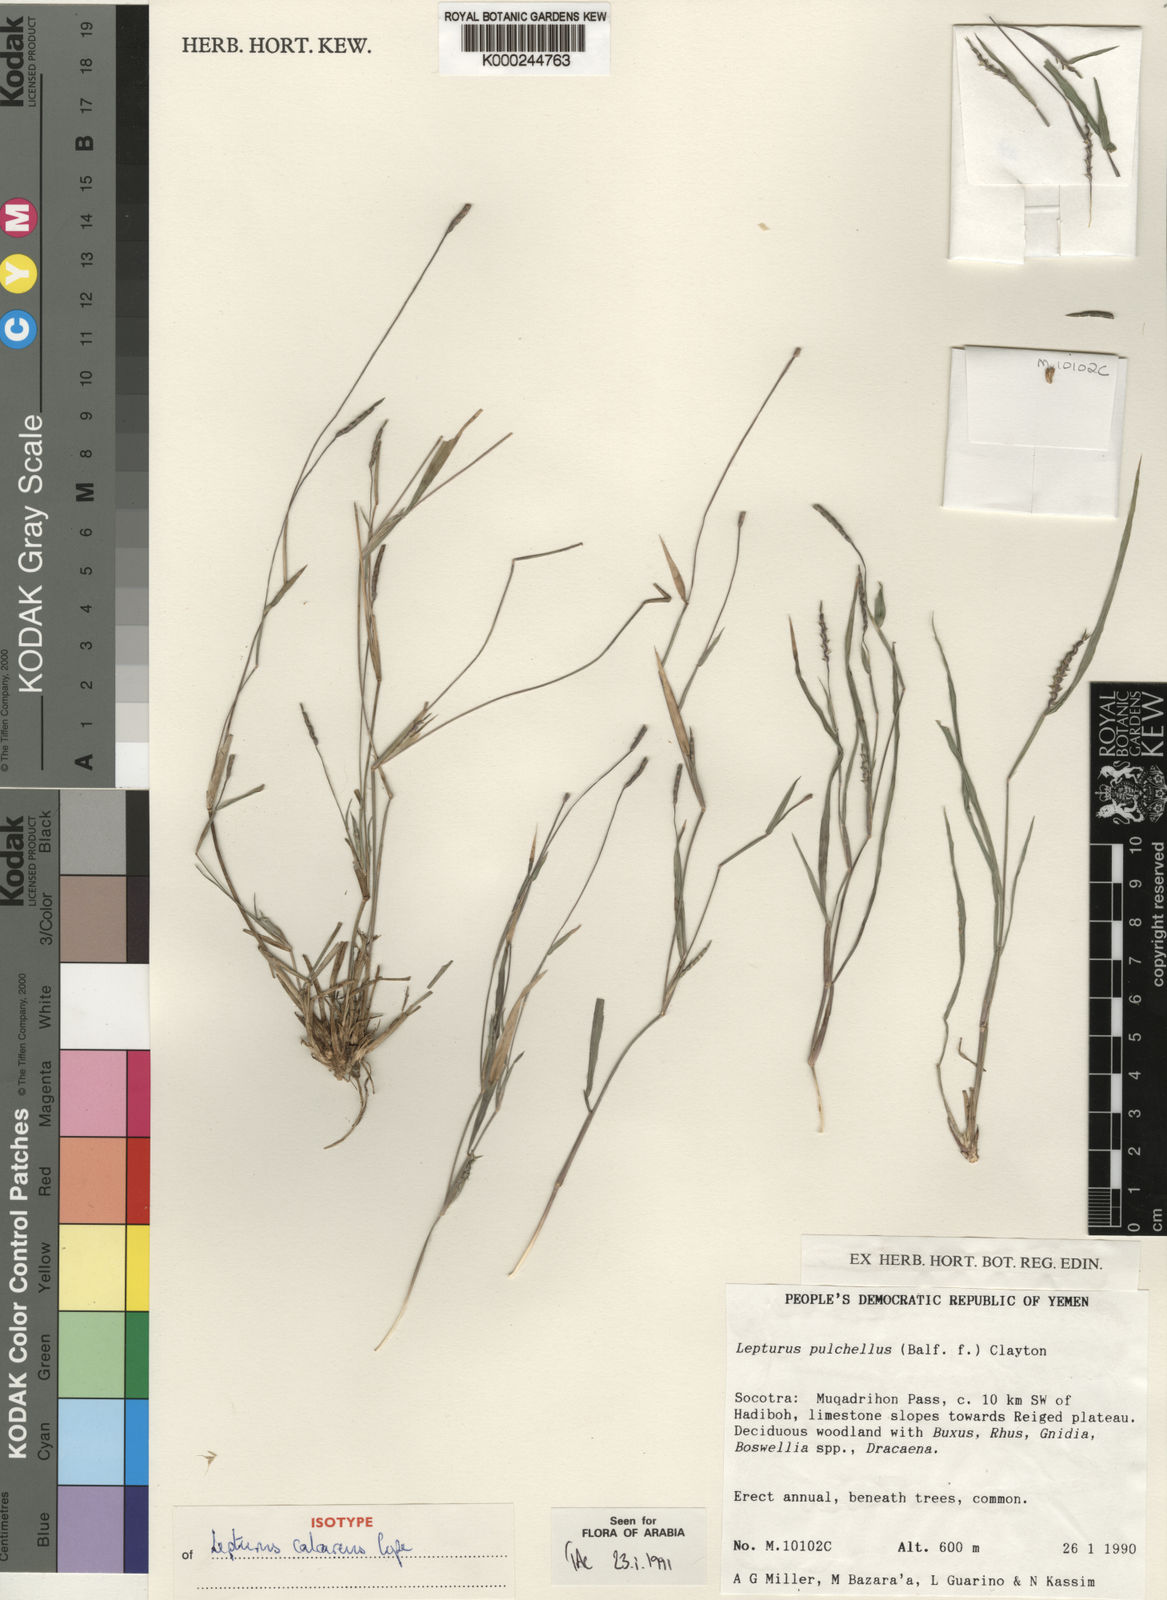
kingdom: Plantae
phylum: Tracheophyta
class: Liliopsida
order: Poales
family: Poaceae
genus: Lepturus
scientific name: Lepturus calcareus
